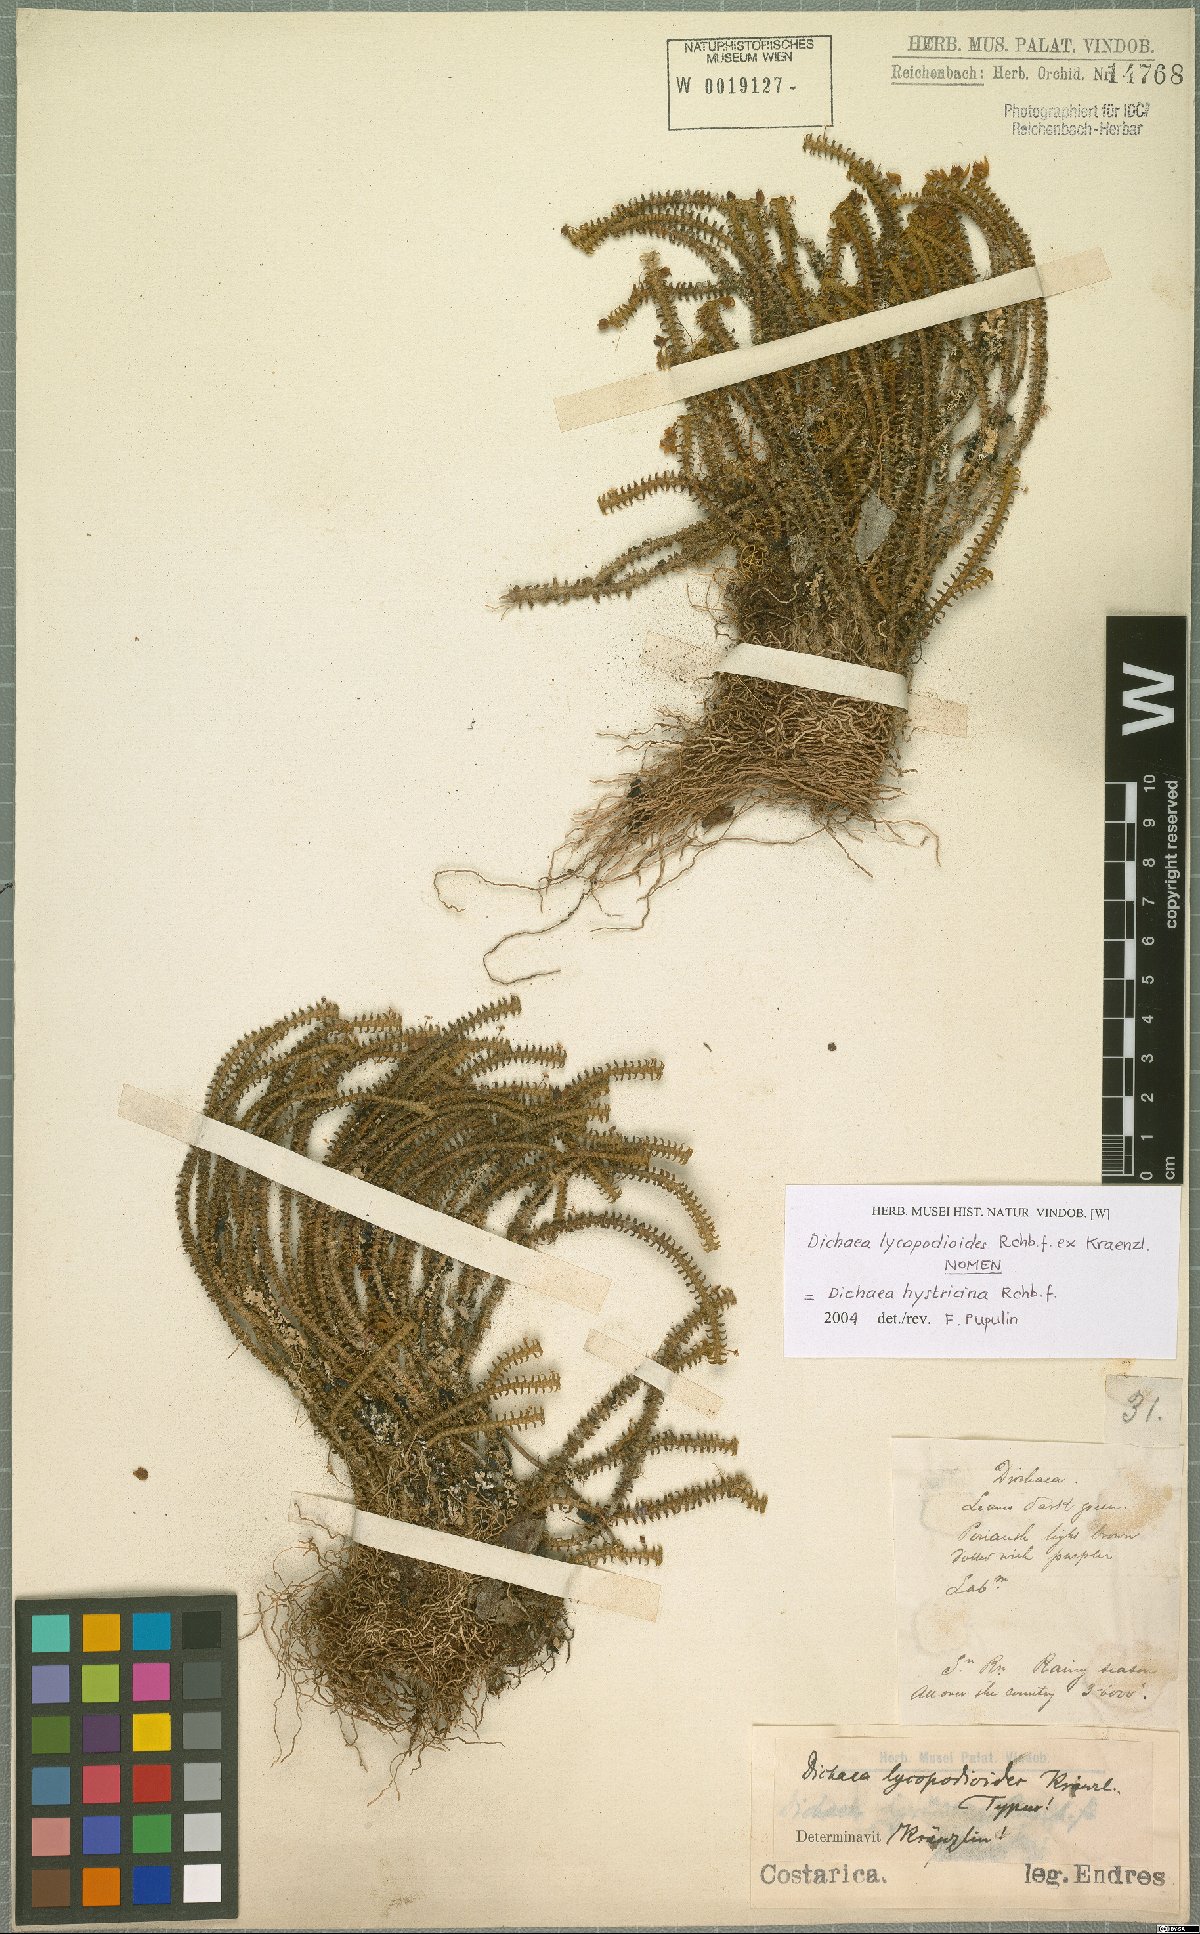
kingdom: Plantae
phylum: Tracheophyta
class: Liliopsida
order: Asparagales
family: Orchidaceae
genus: Dichaea
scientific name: Dichaea hystricina
